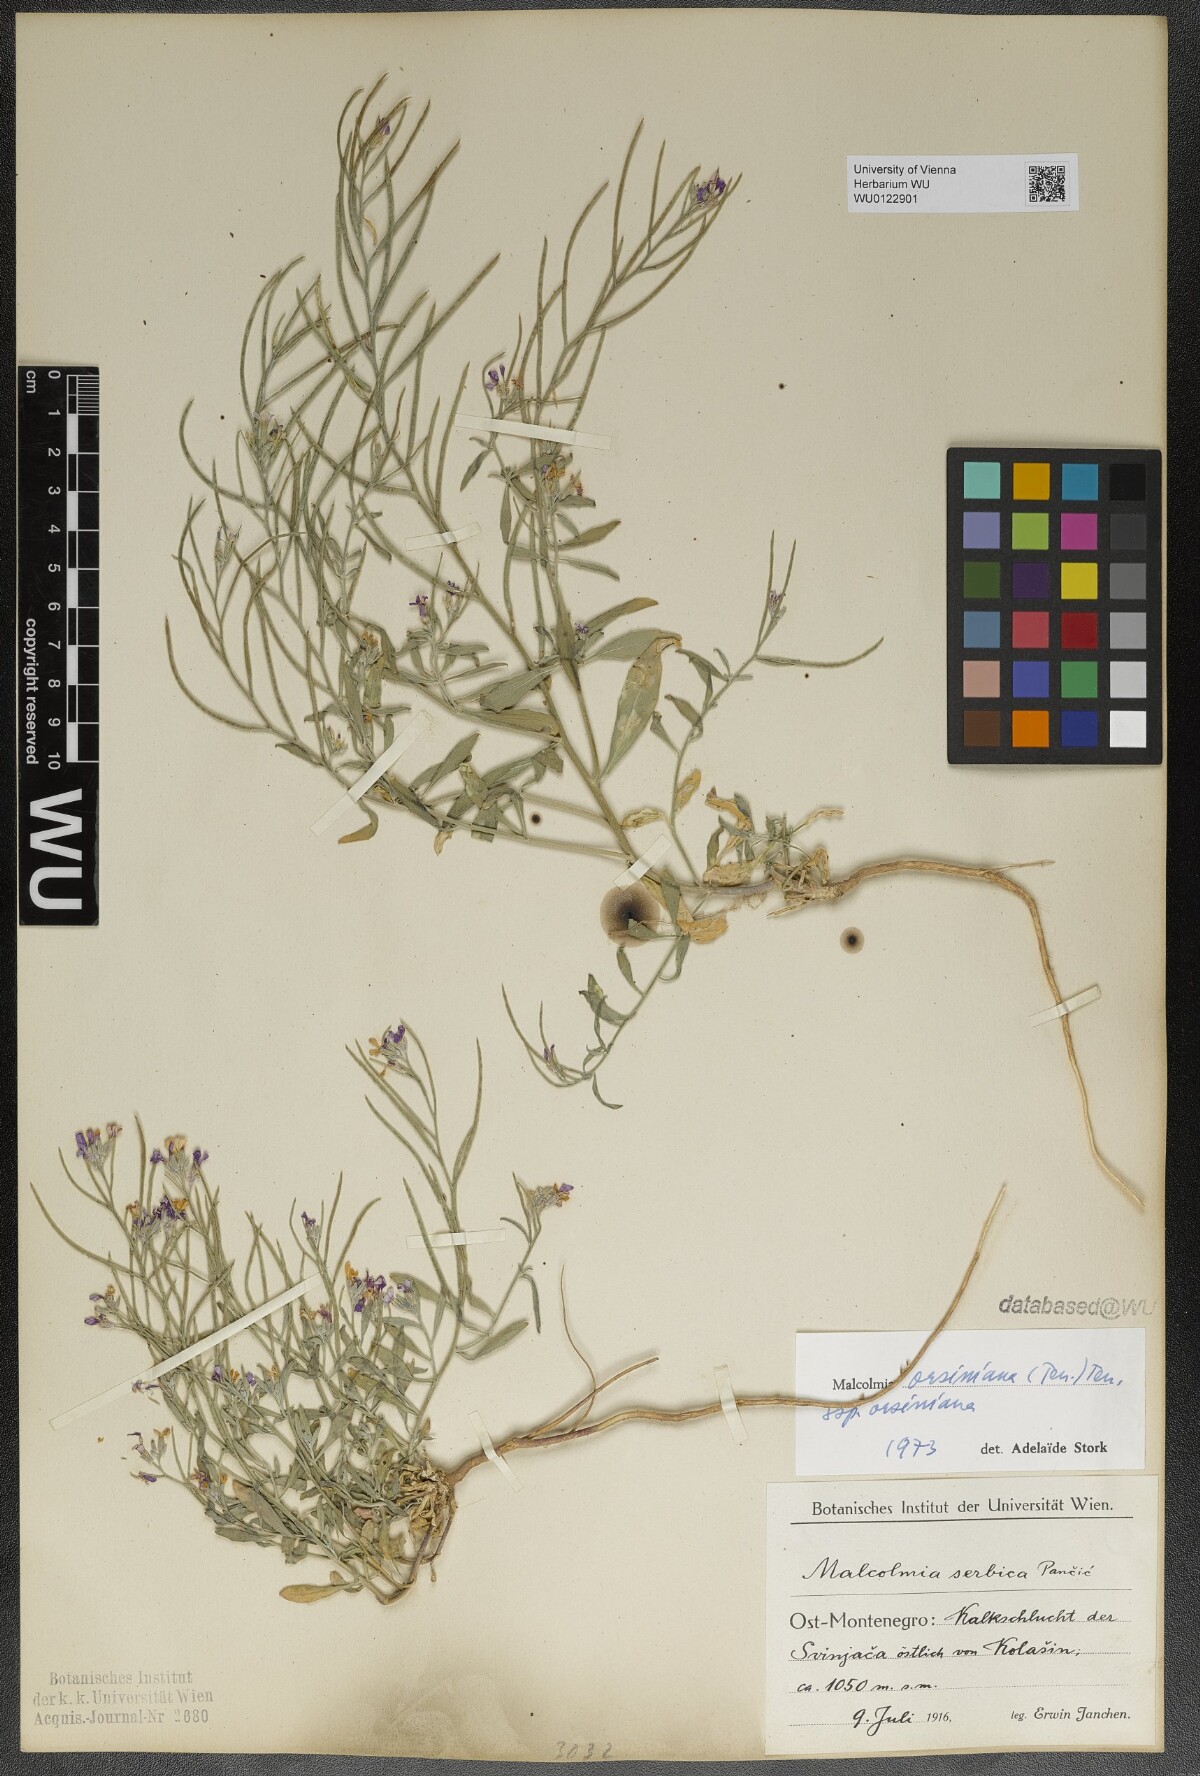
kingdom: Plantae
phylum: Tracheophyta
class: Magnoliopsida
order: Brassicales
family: Brassicaceae
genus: Malcolmia
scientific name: Malcolmia orsiniana
